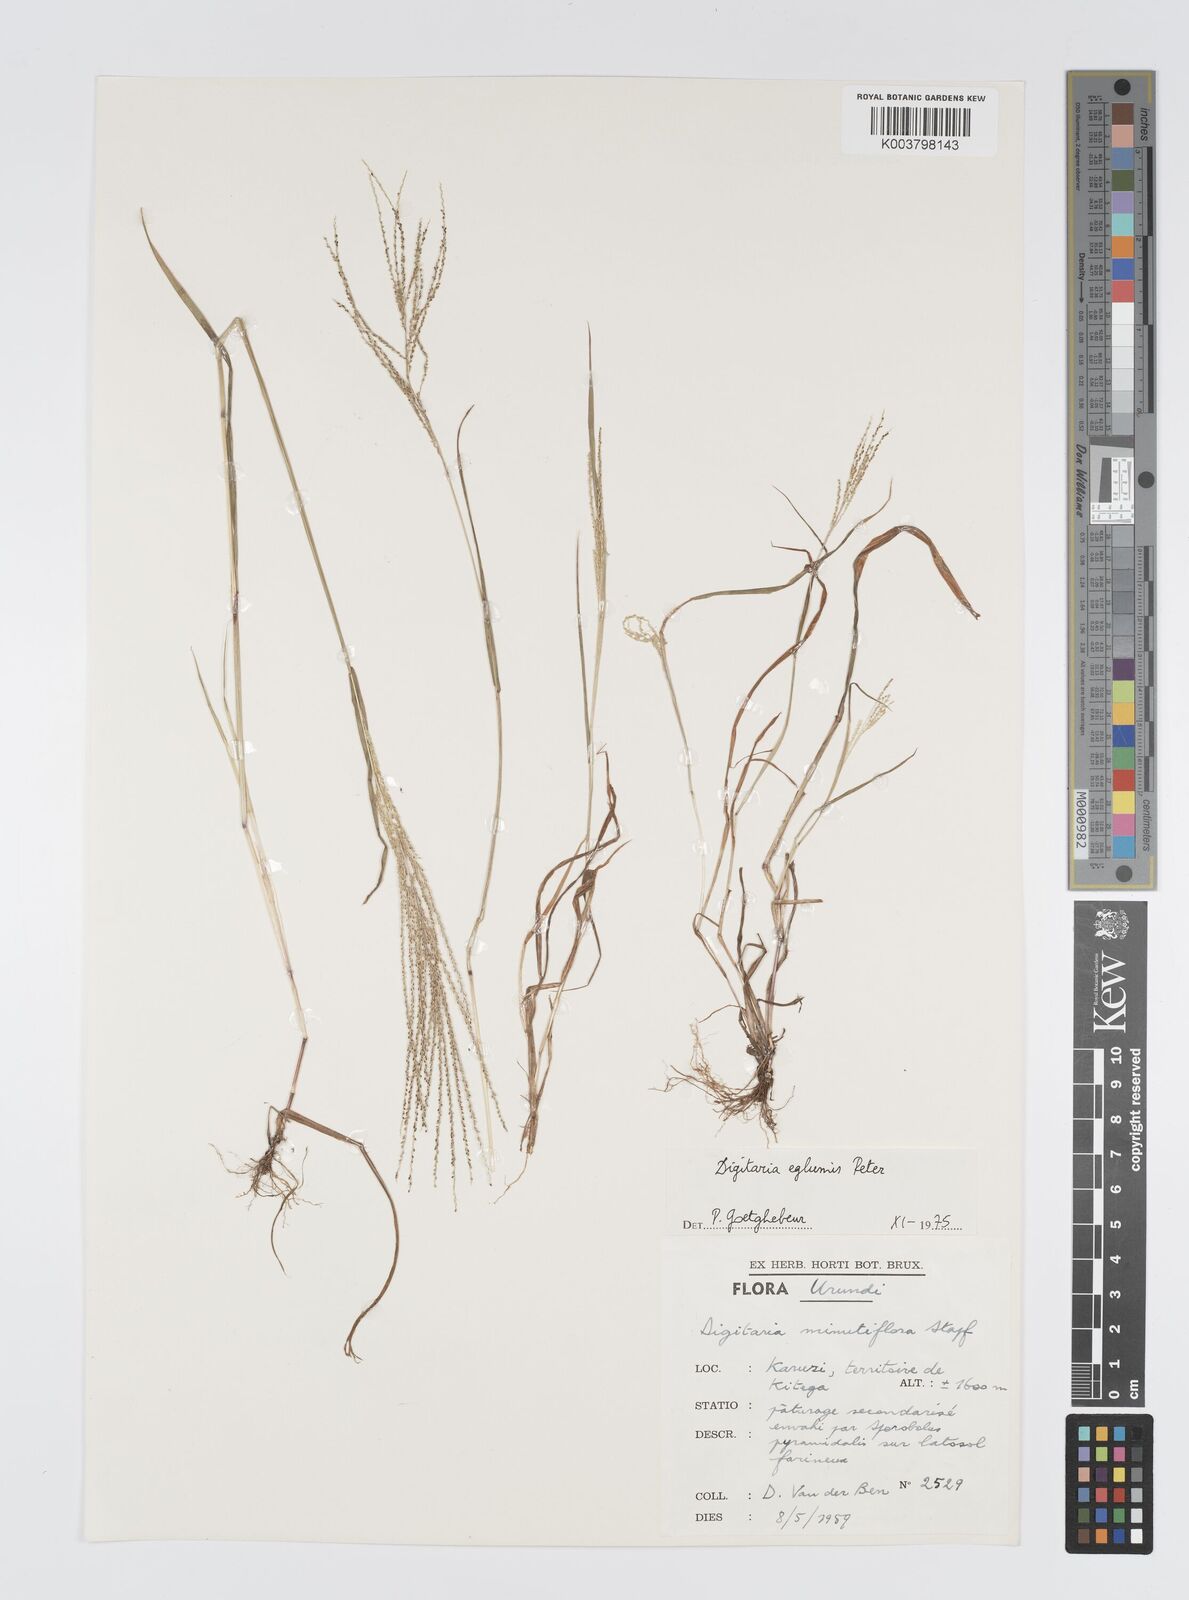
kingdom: Plantae
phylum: Tracheophyta
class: Liliopsida
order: Poales
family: Poaceae
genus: Digitaria
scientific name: Digitaria pseudodiagonalis
